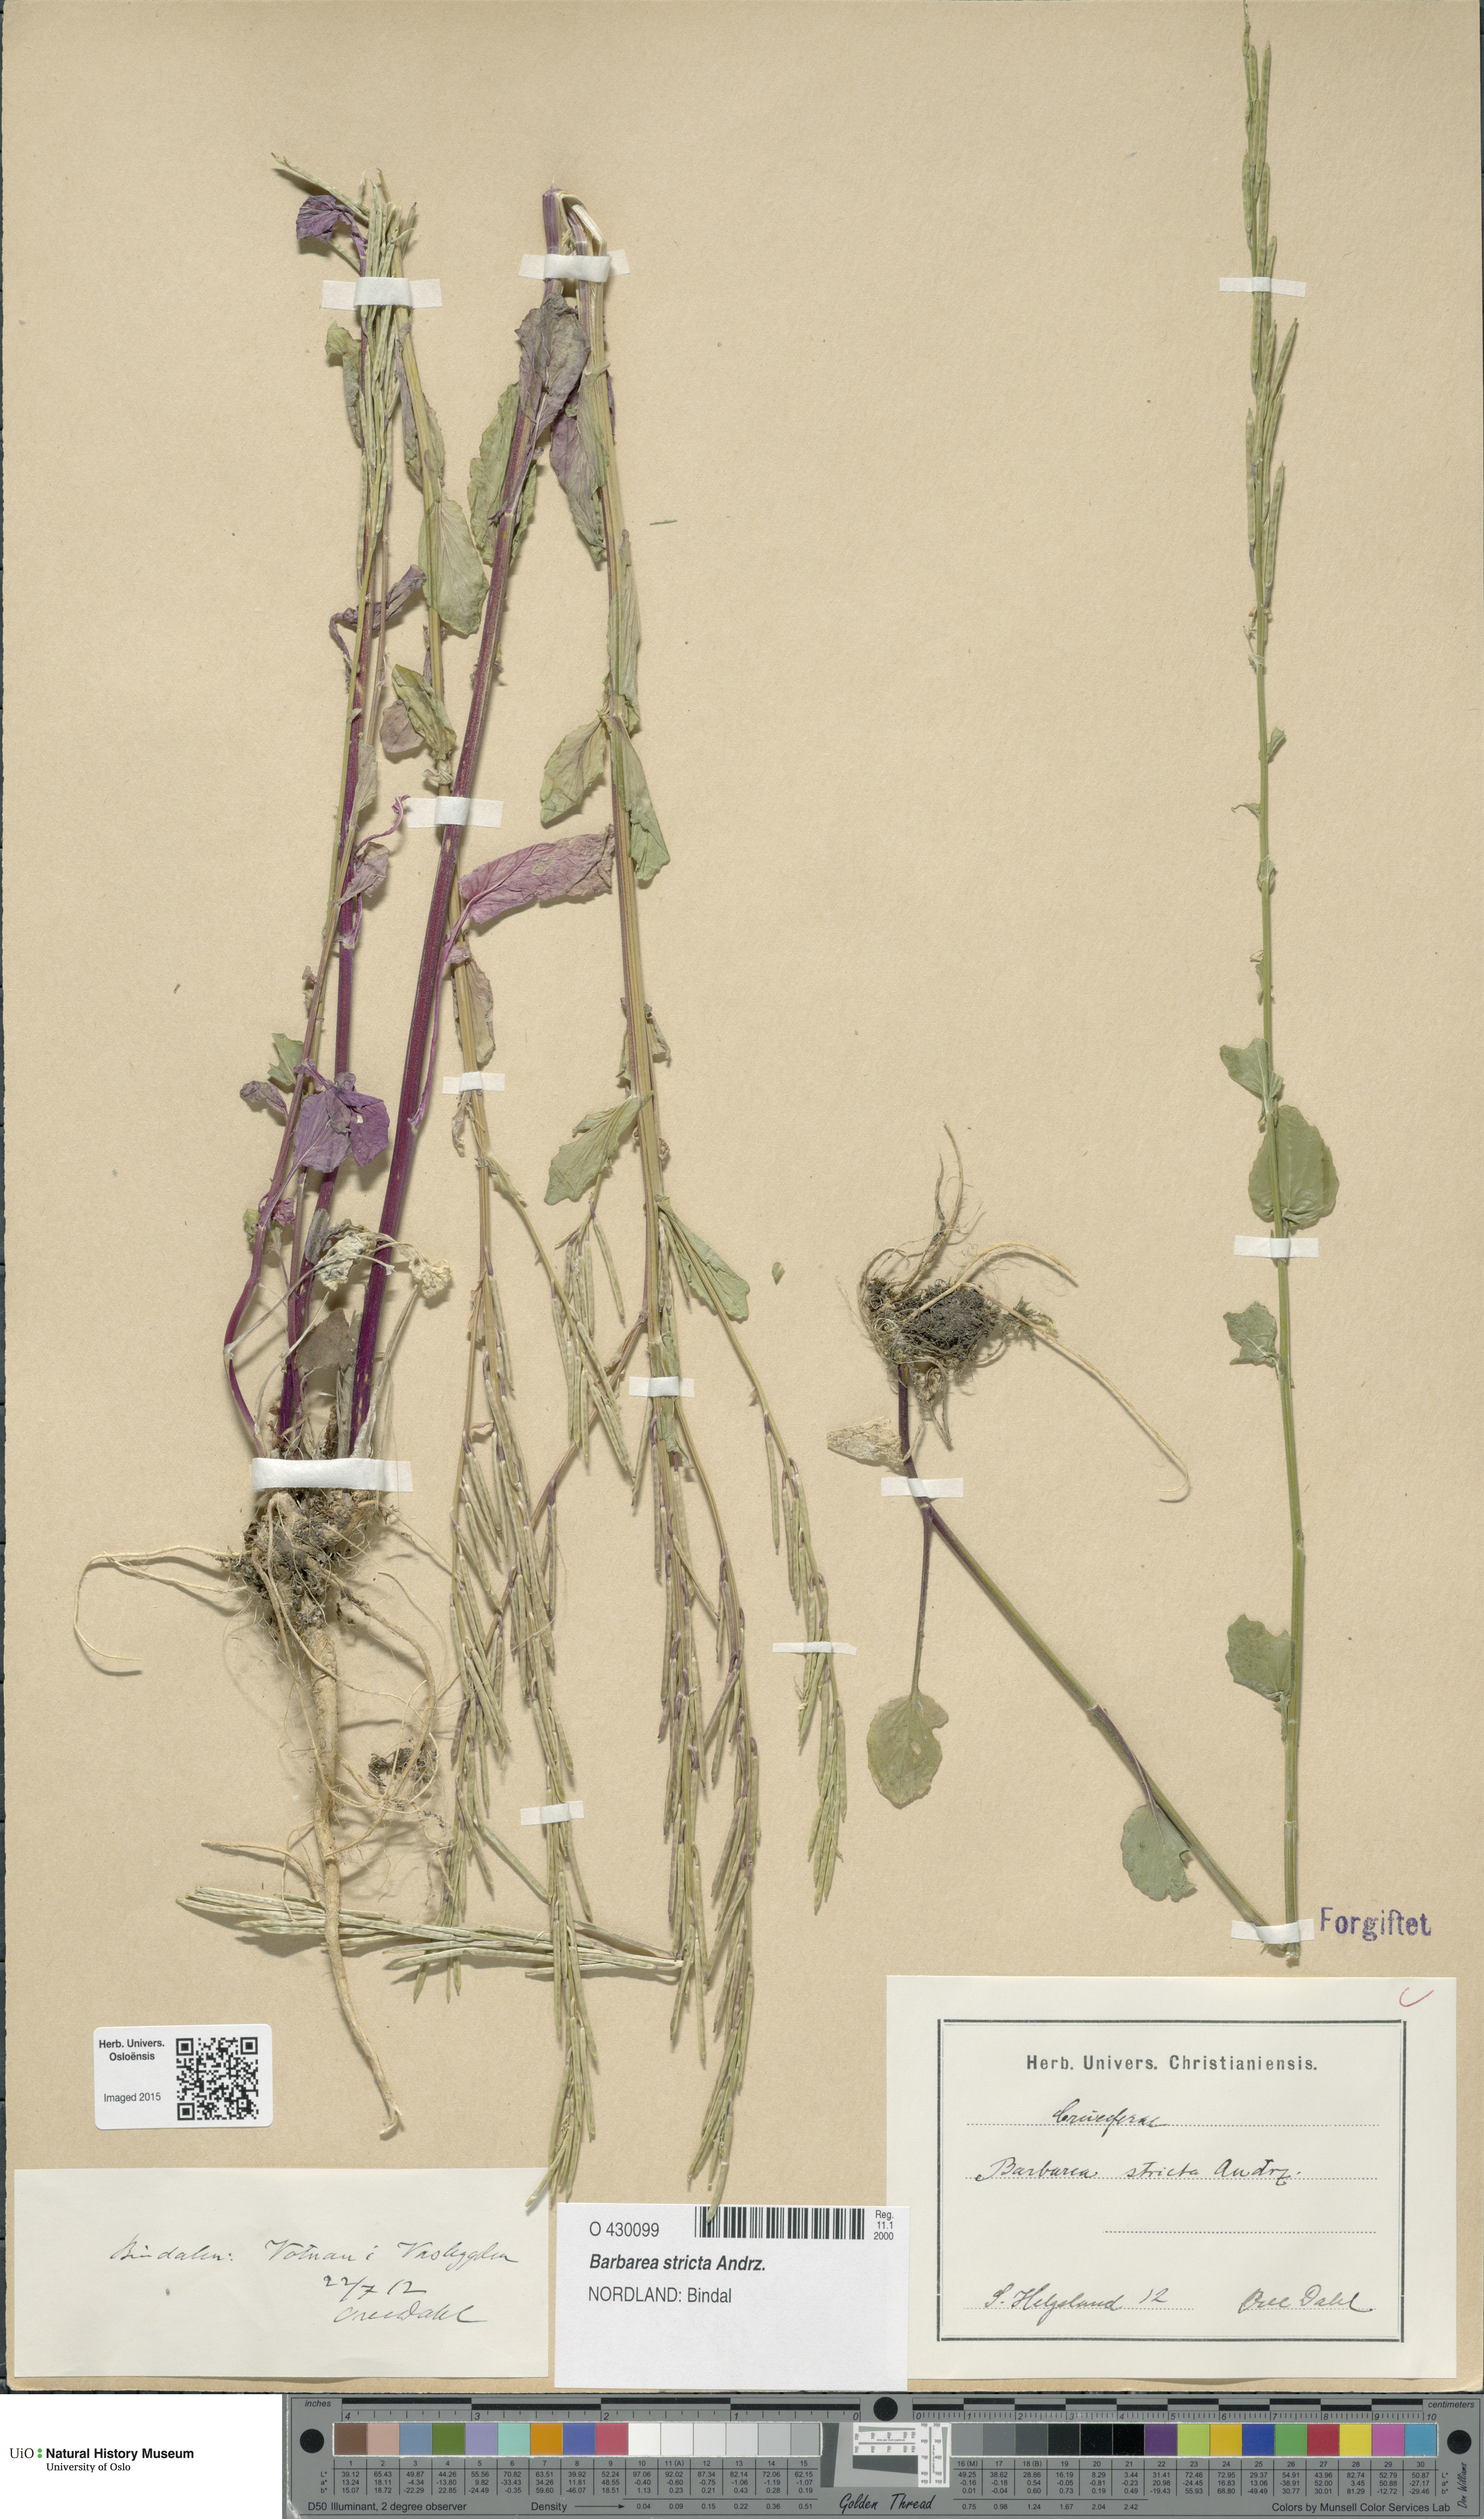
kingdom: Plantae
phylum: Tracheophyta
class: Magnoliopsida
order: Brassicales
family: Brassicaceae
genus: Barbarea
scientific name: Barbarea stricta
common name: Small-flowered winter-cress
